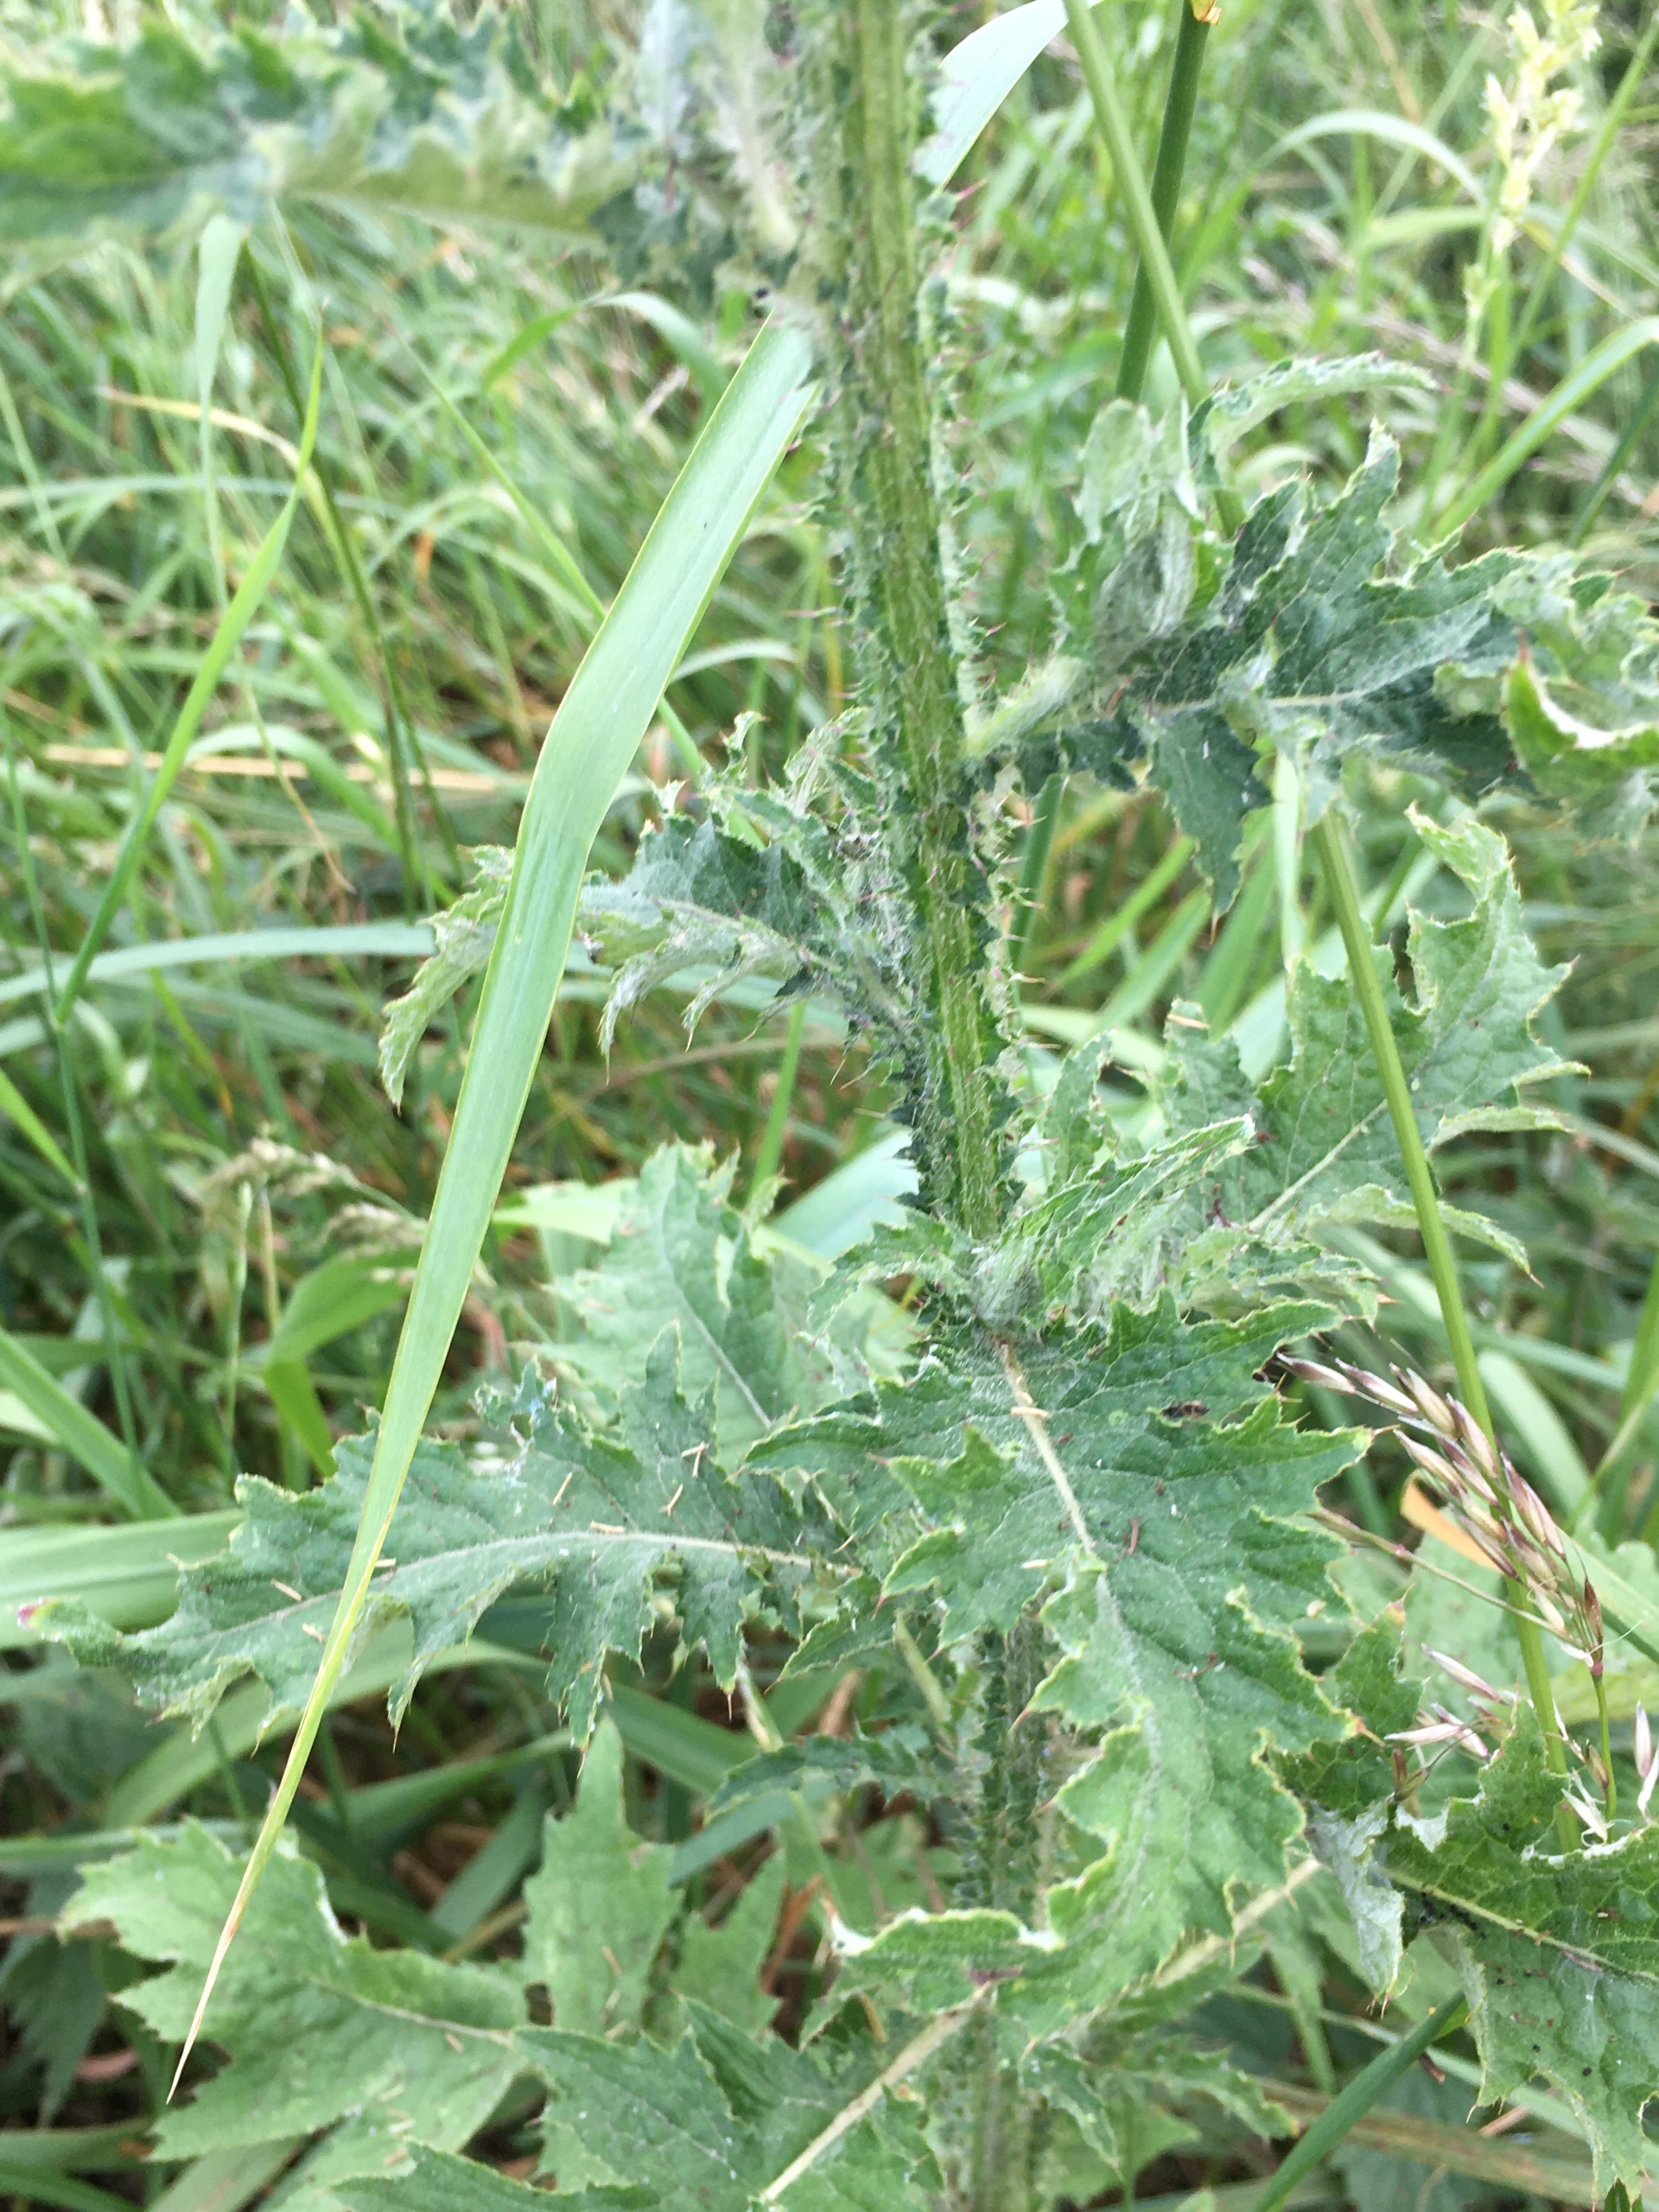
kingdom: Plantae
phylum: Tracheophyta
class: Magnoliopsida
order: Asterales
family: Asteraceae
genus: Carduus
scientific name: Carduus crispus
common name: Kruset tidsel
